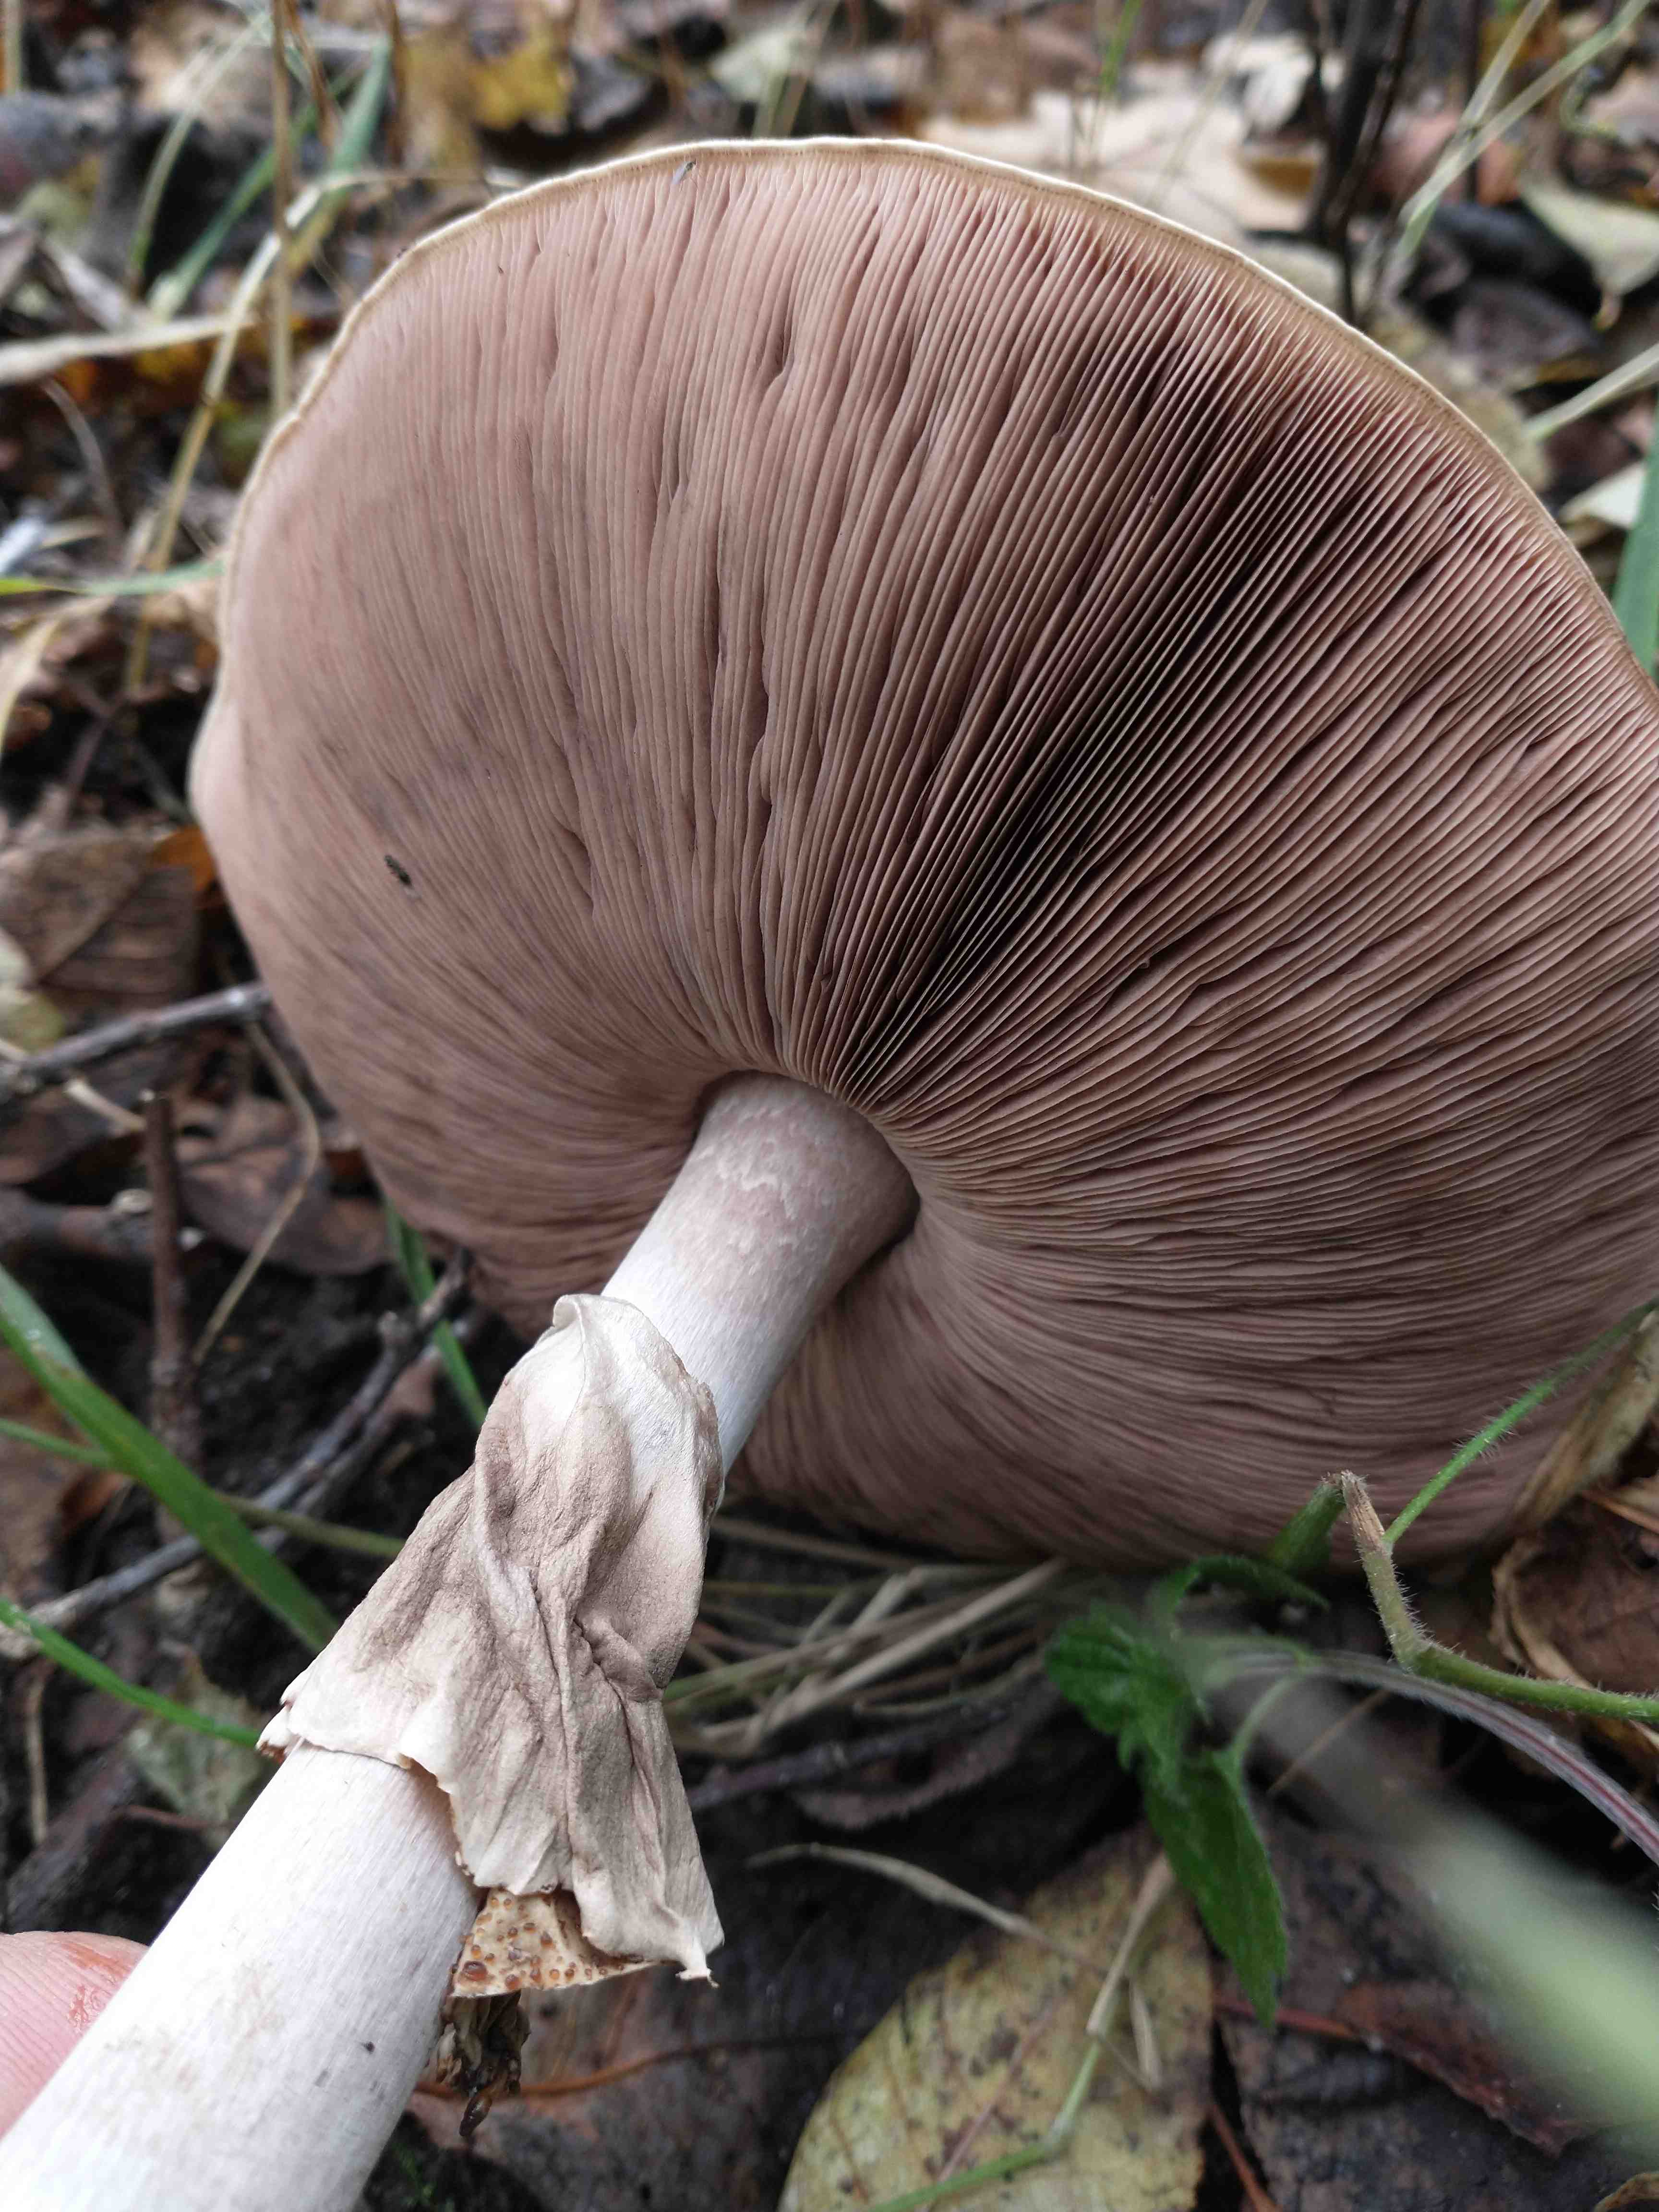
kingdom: Fungi
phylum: Basidiomycota
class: Agaricomycetes
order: Agaricales
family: Agaricaceae
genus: Agaricus
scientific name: Agaricus impudicus
